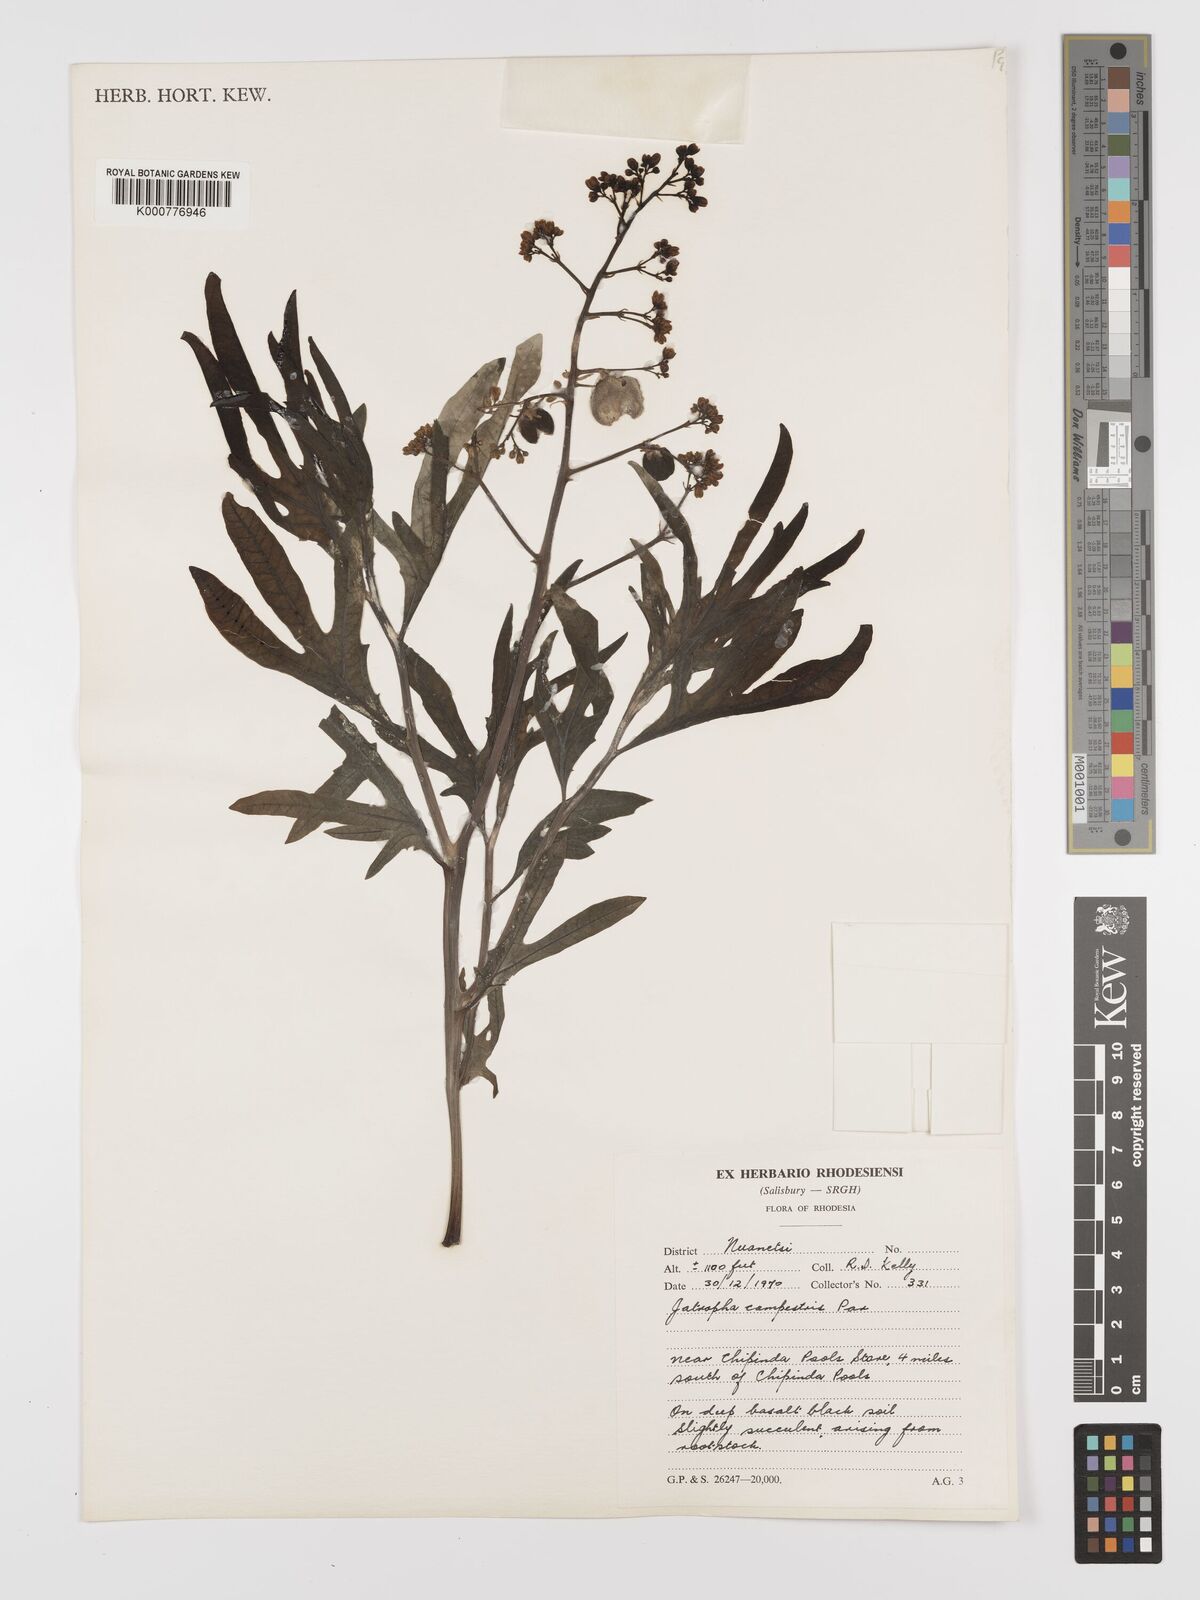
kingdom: Plantae
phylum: Tracheophyta
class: Magnoliopsida
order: Malpighiales
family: Euphorbiaceae
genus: Jatropha
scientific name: Jatropha campestris
